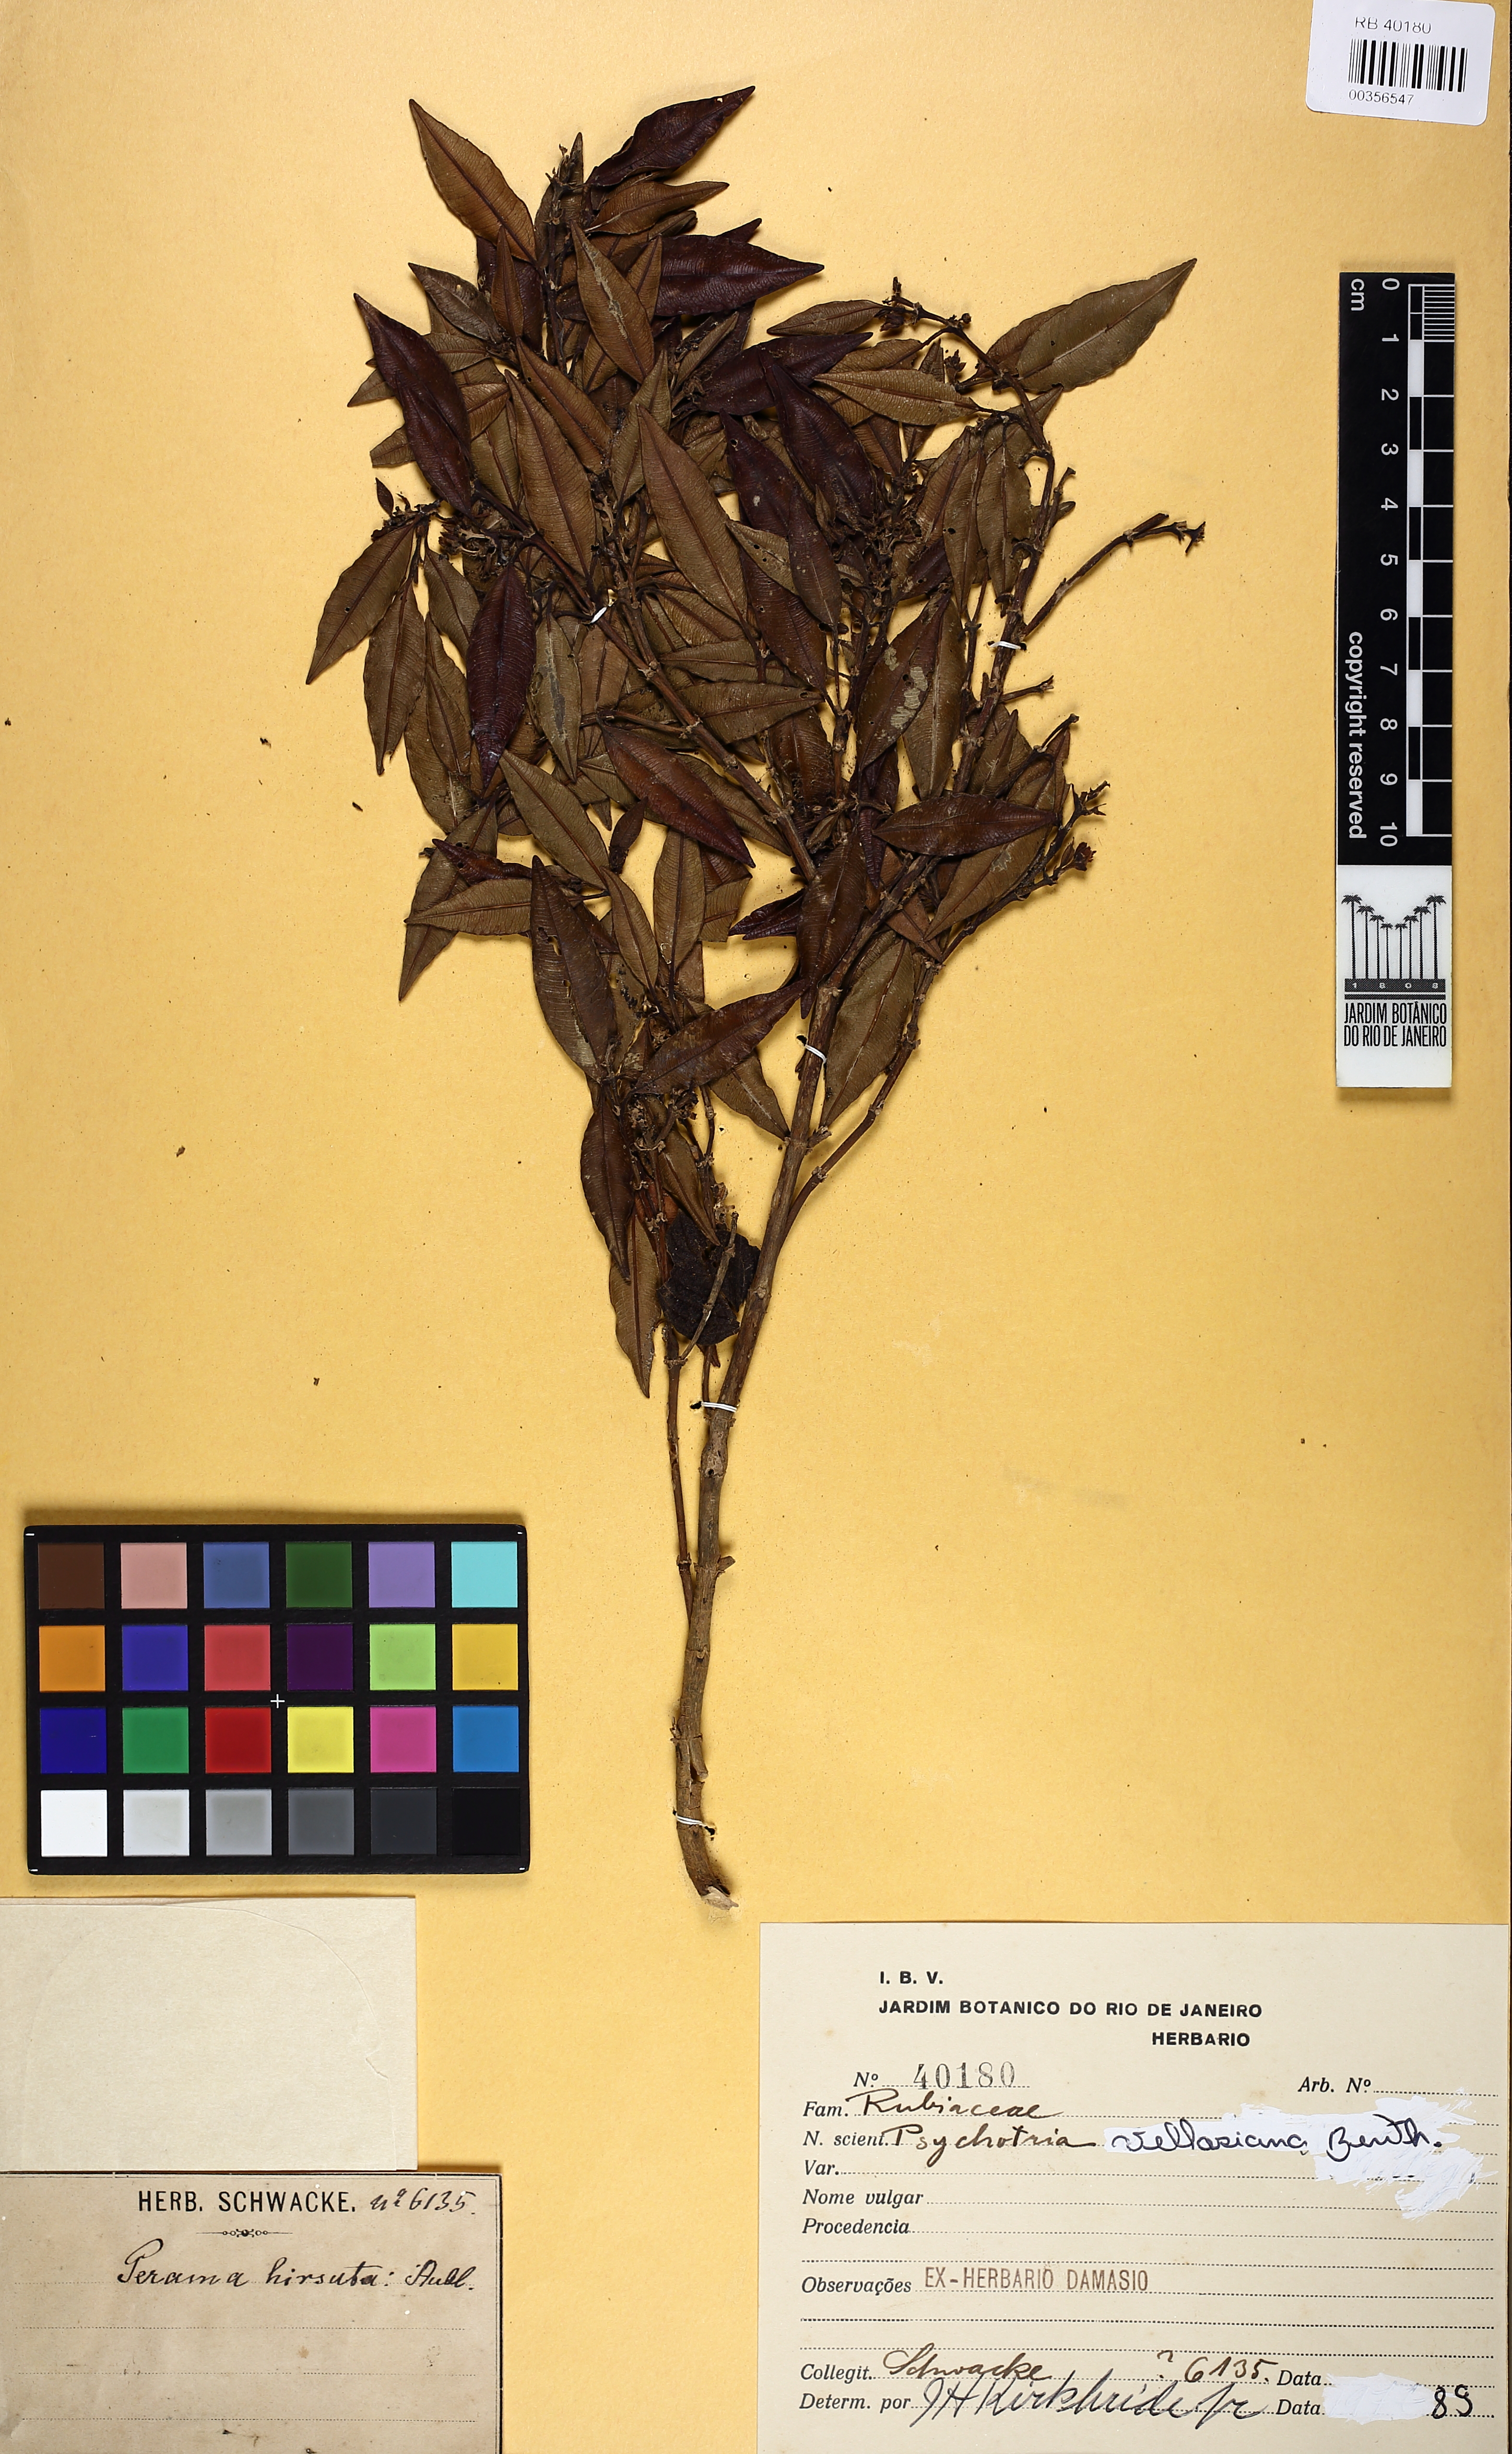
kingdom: Plantae
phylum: Tracheophyta
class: Magnoliopsida
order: Gentianales
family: Rubiaceae
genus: Palicourea
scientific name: Palicourea sessilis
